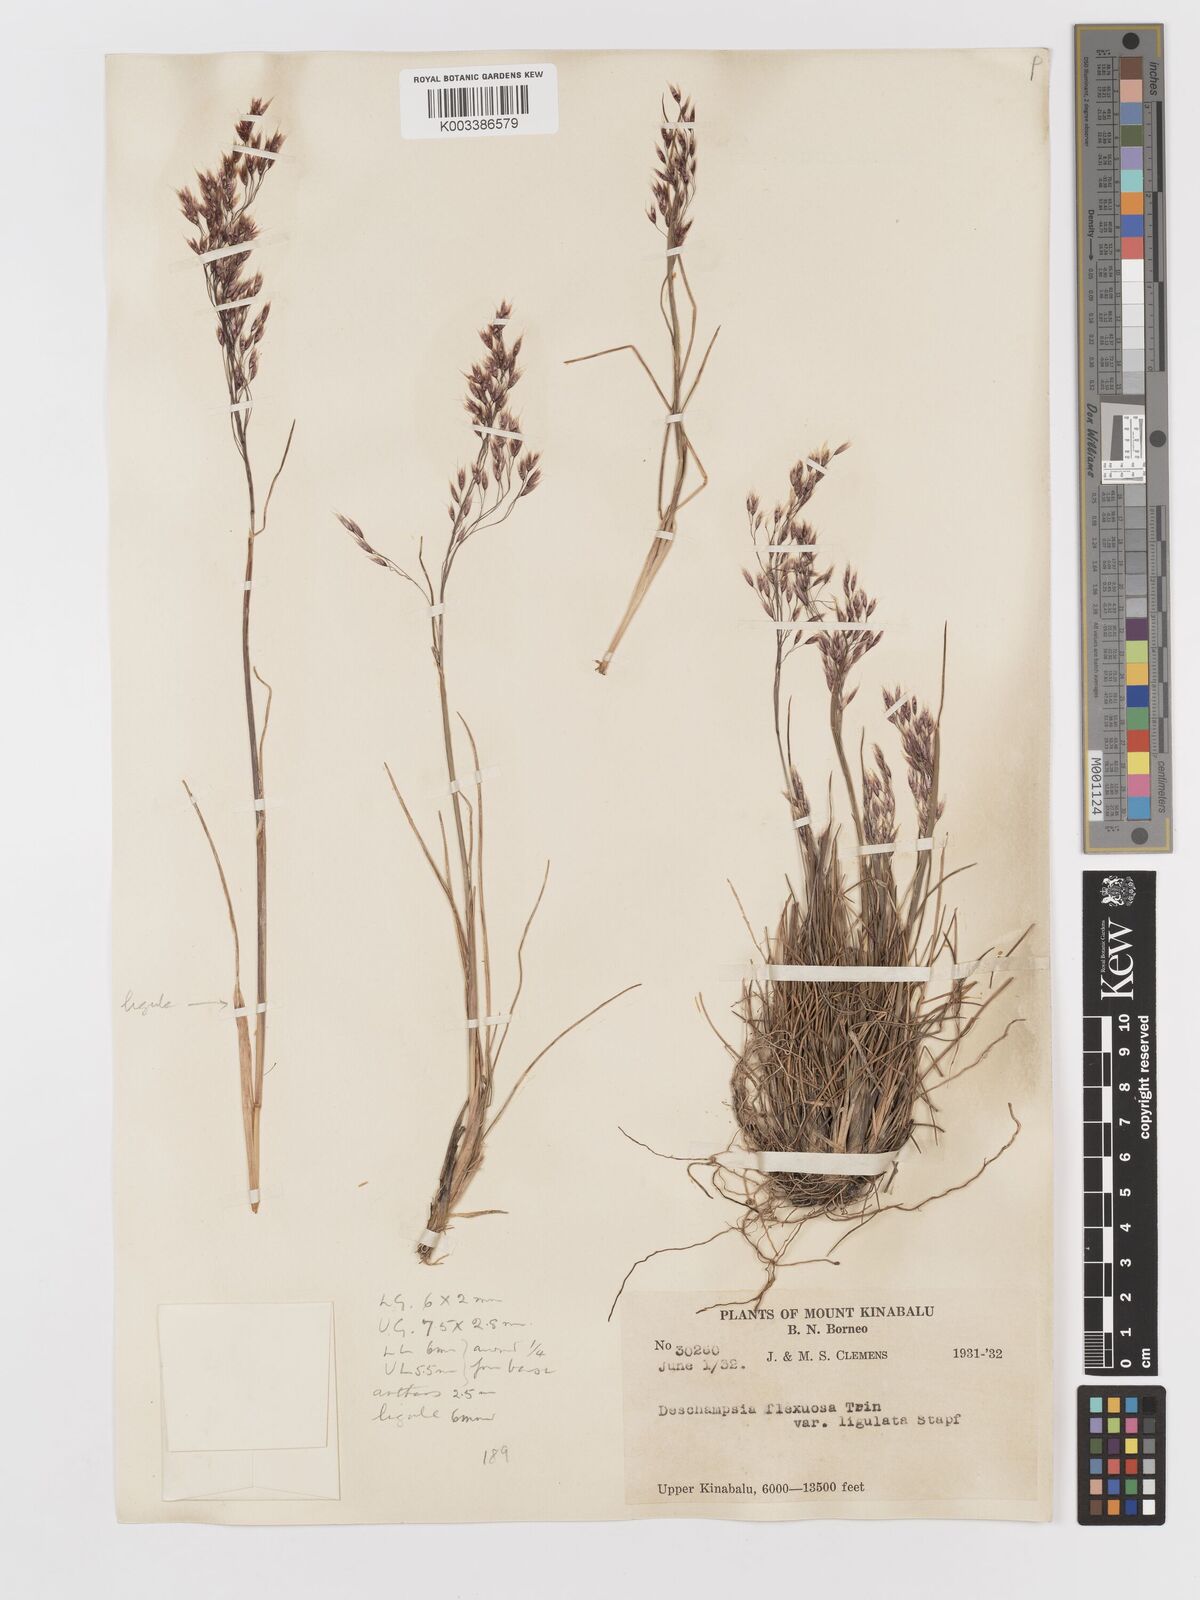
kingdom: Plantae
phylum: Tracheophyta
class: Liliopsida
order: Poales
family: Poaceae
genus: Avenella
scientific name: Avenella flexuosa
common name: Wavy hairgrass
